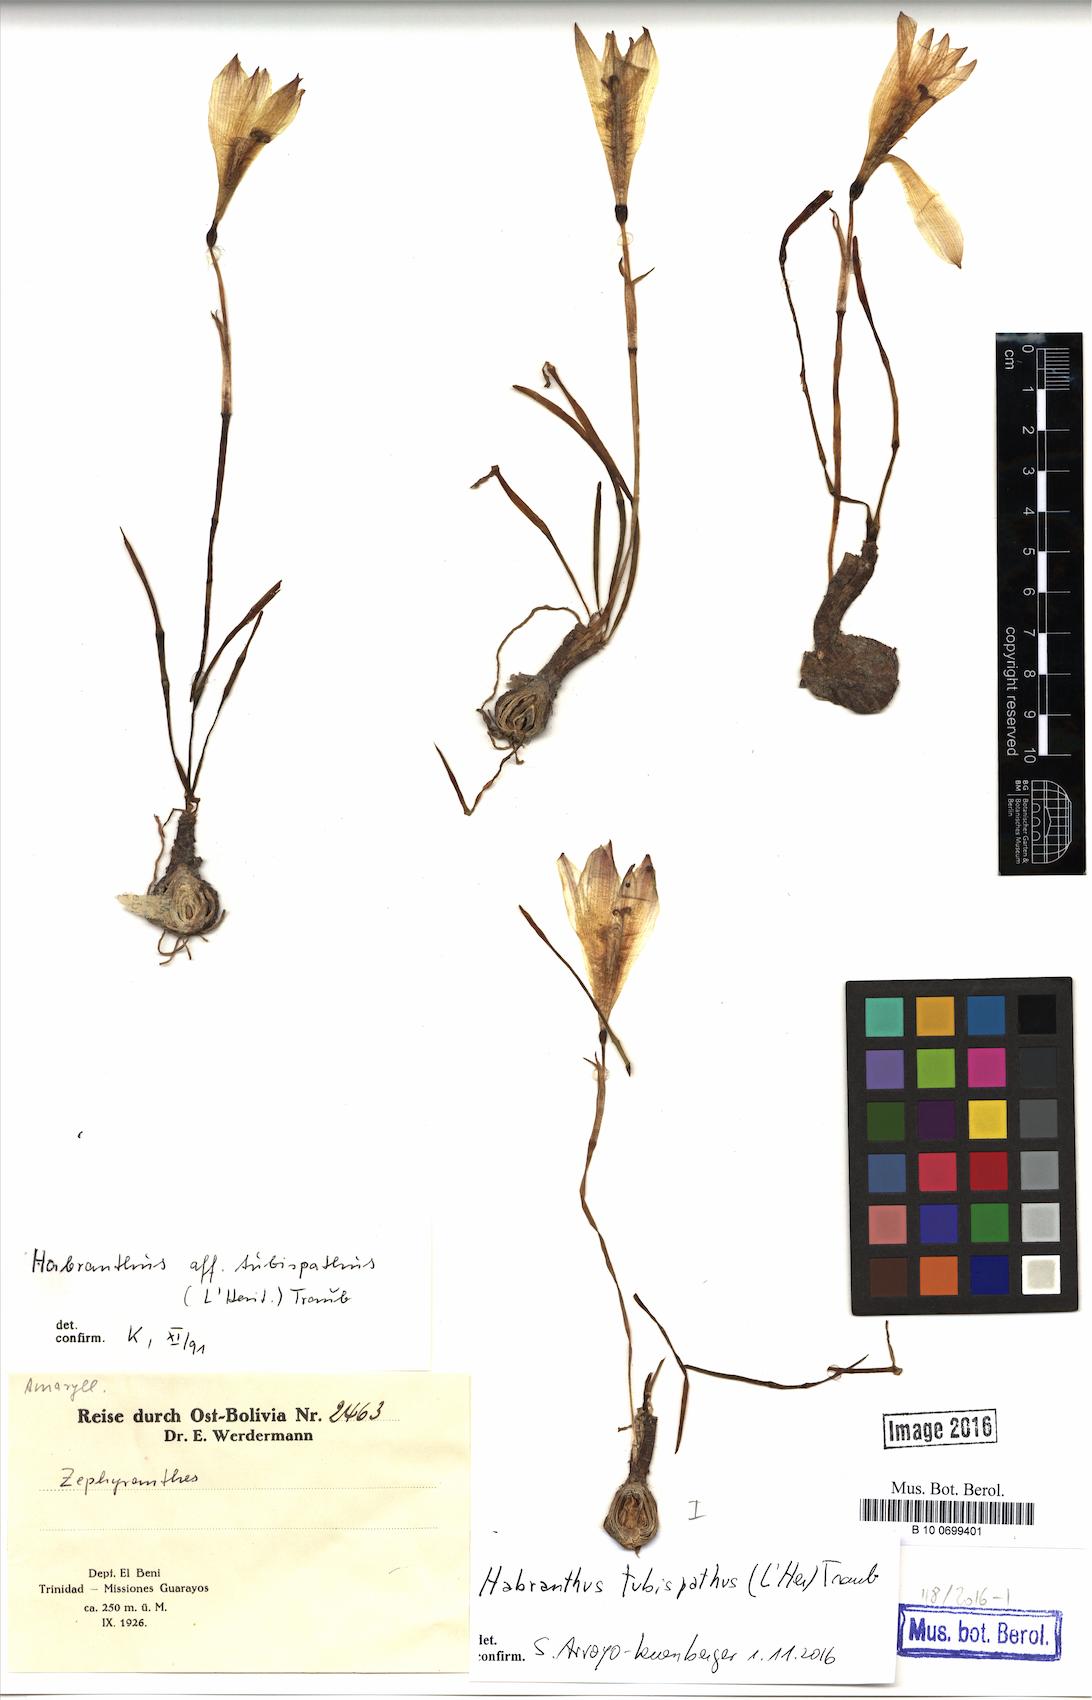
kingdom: Plantae
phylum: Tracheophyta
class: Liliopsida
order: Asparagales
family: Amaryllidaceae
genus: Zephyranthes
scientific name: Zephyranthes tubispatha
